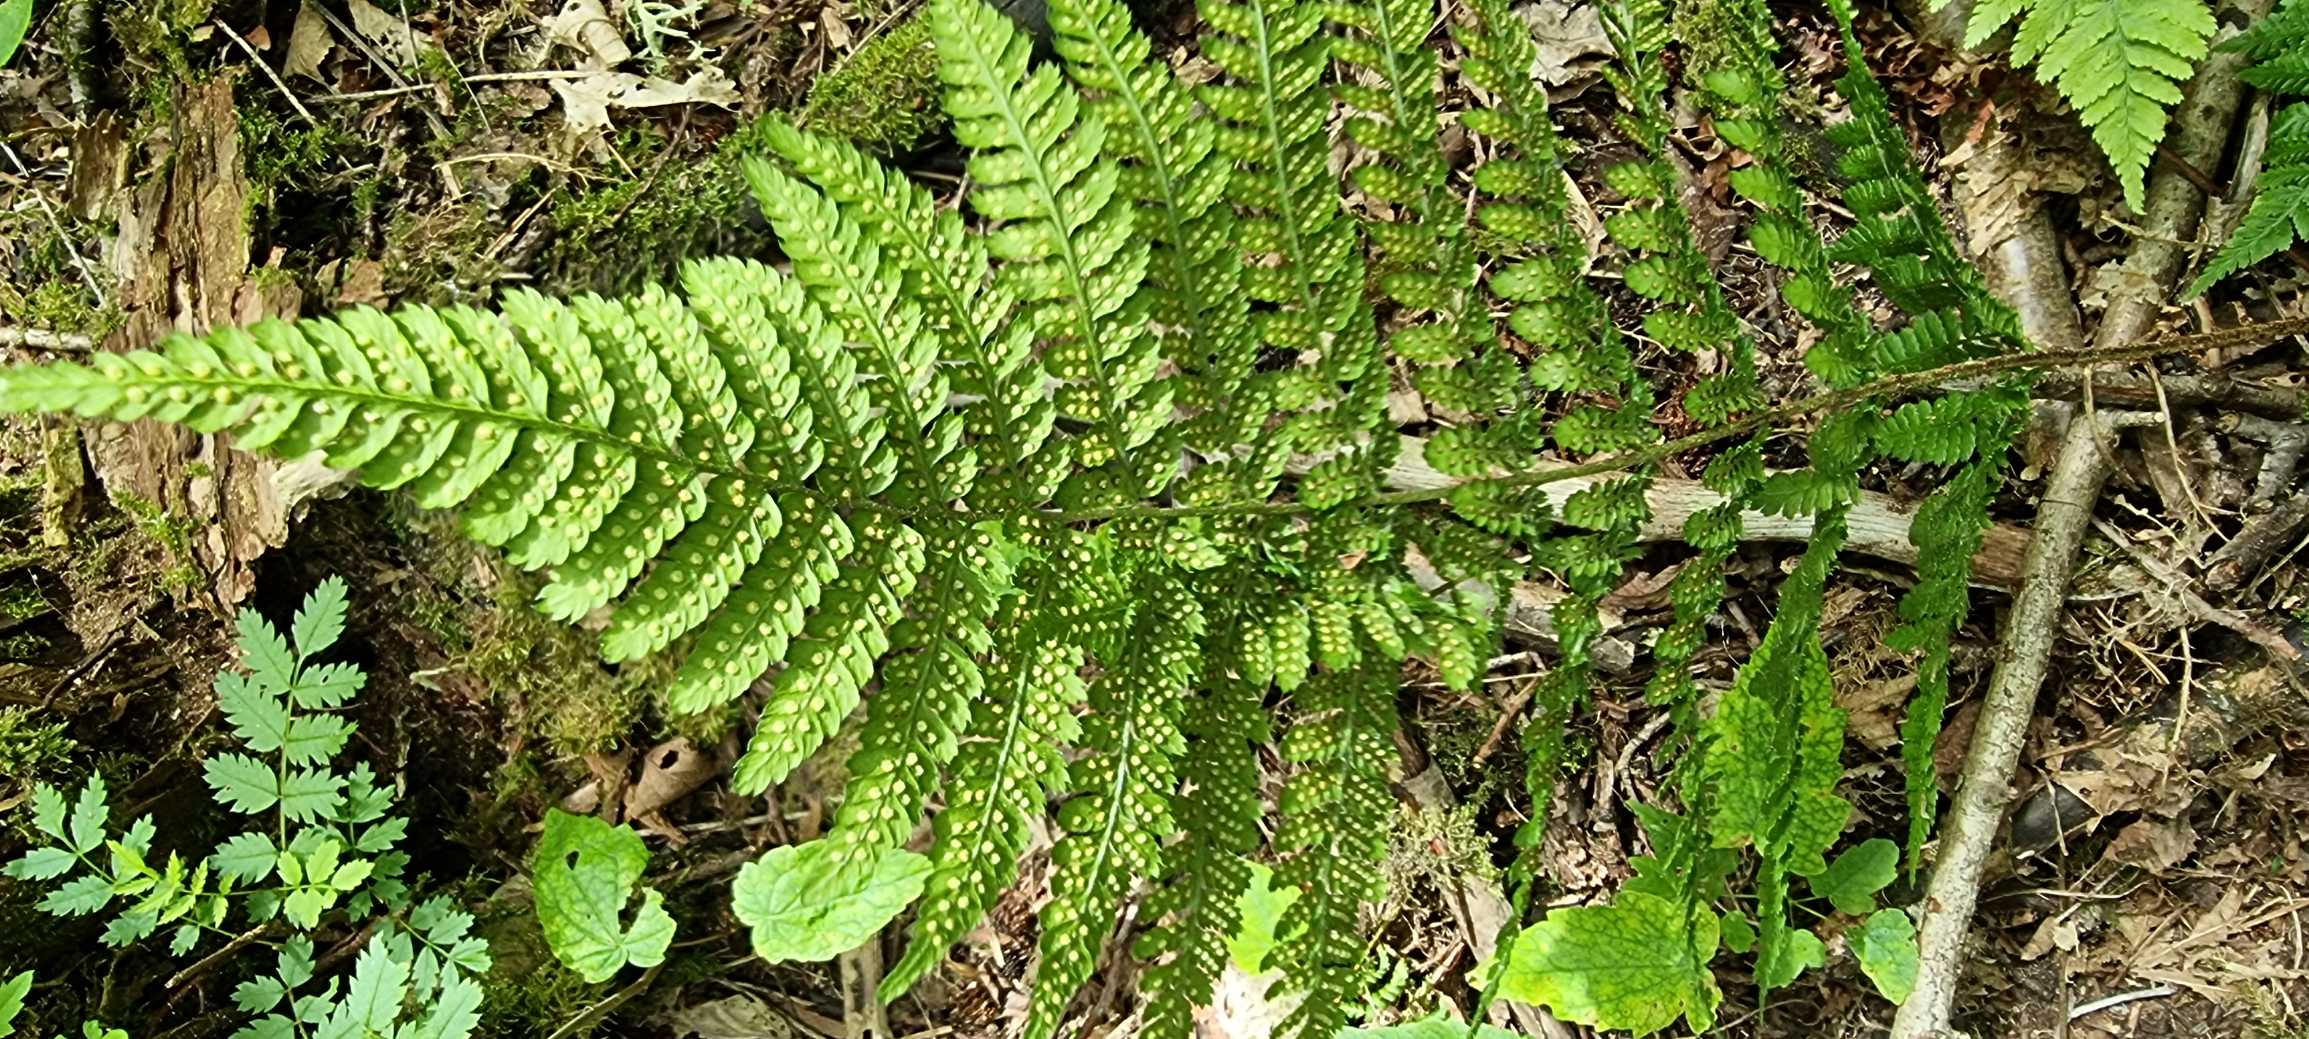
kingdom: Plantae
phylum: Tracheophyta
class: Polypodiopsida
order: Polypodiales
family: Dryopteridaceae
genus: Dryopteris
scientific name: Dryopteris dilatata
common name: Bredbladet mangeløv
